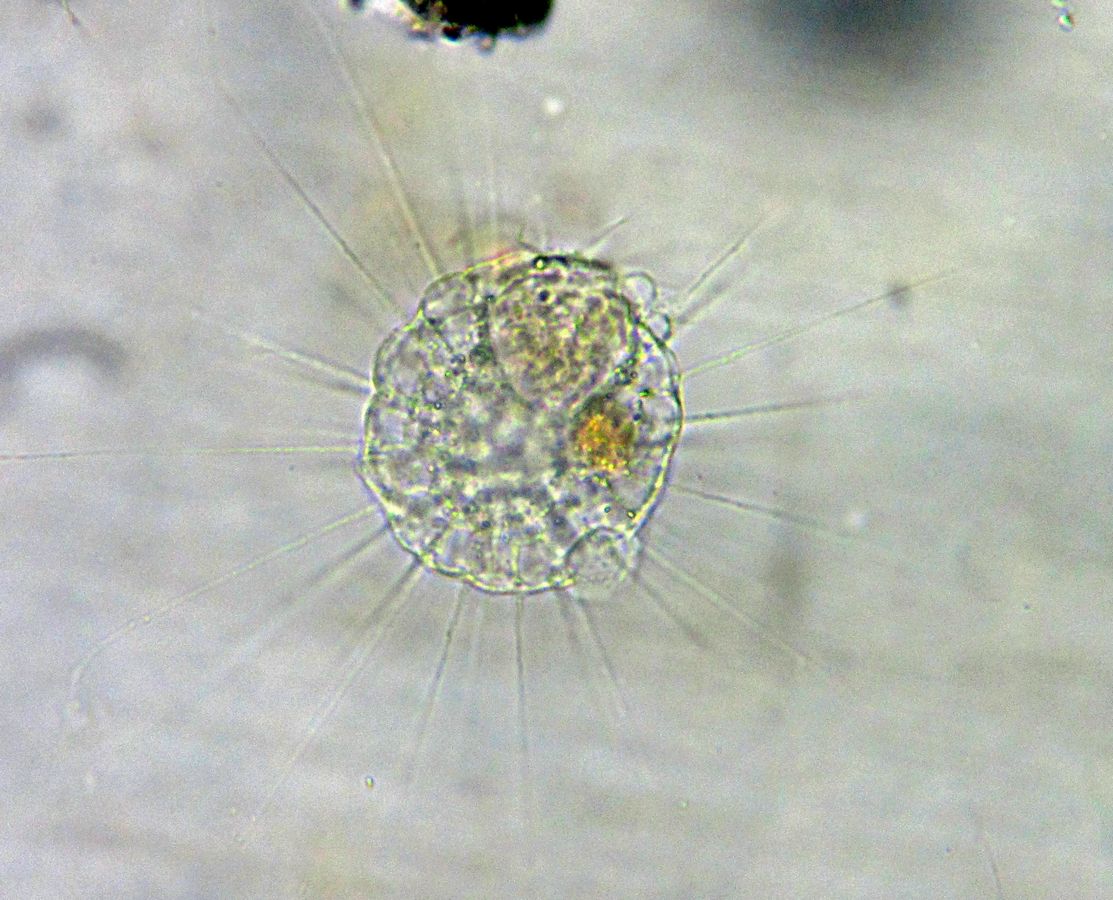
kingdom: Chromista
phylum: Ochrophyta
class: Raphidophyceae
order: Actinophryida
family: Actinophryidae
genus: Actinophrys
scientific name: Actinophrys sol
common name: солнечник
